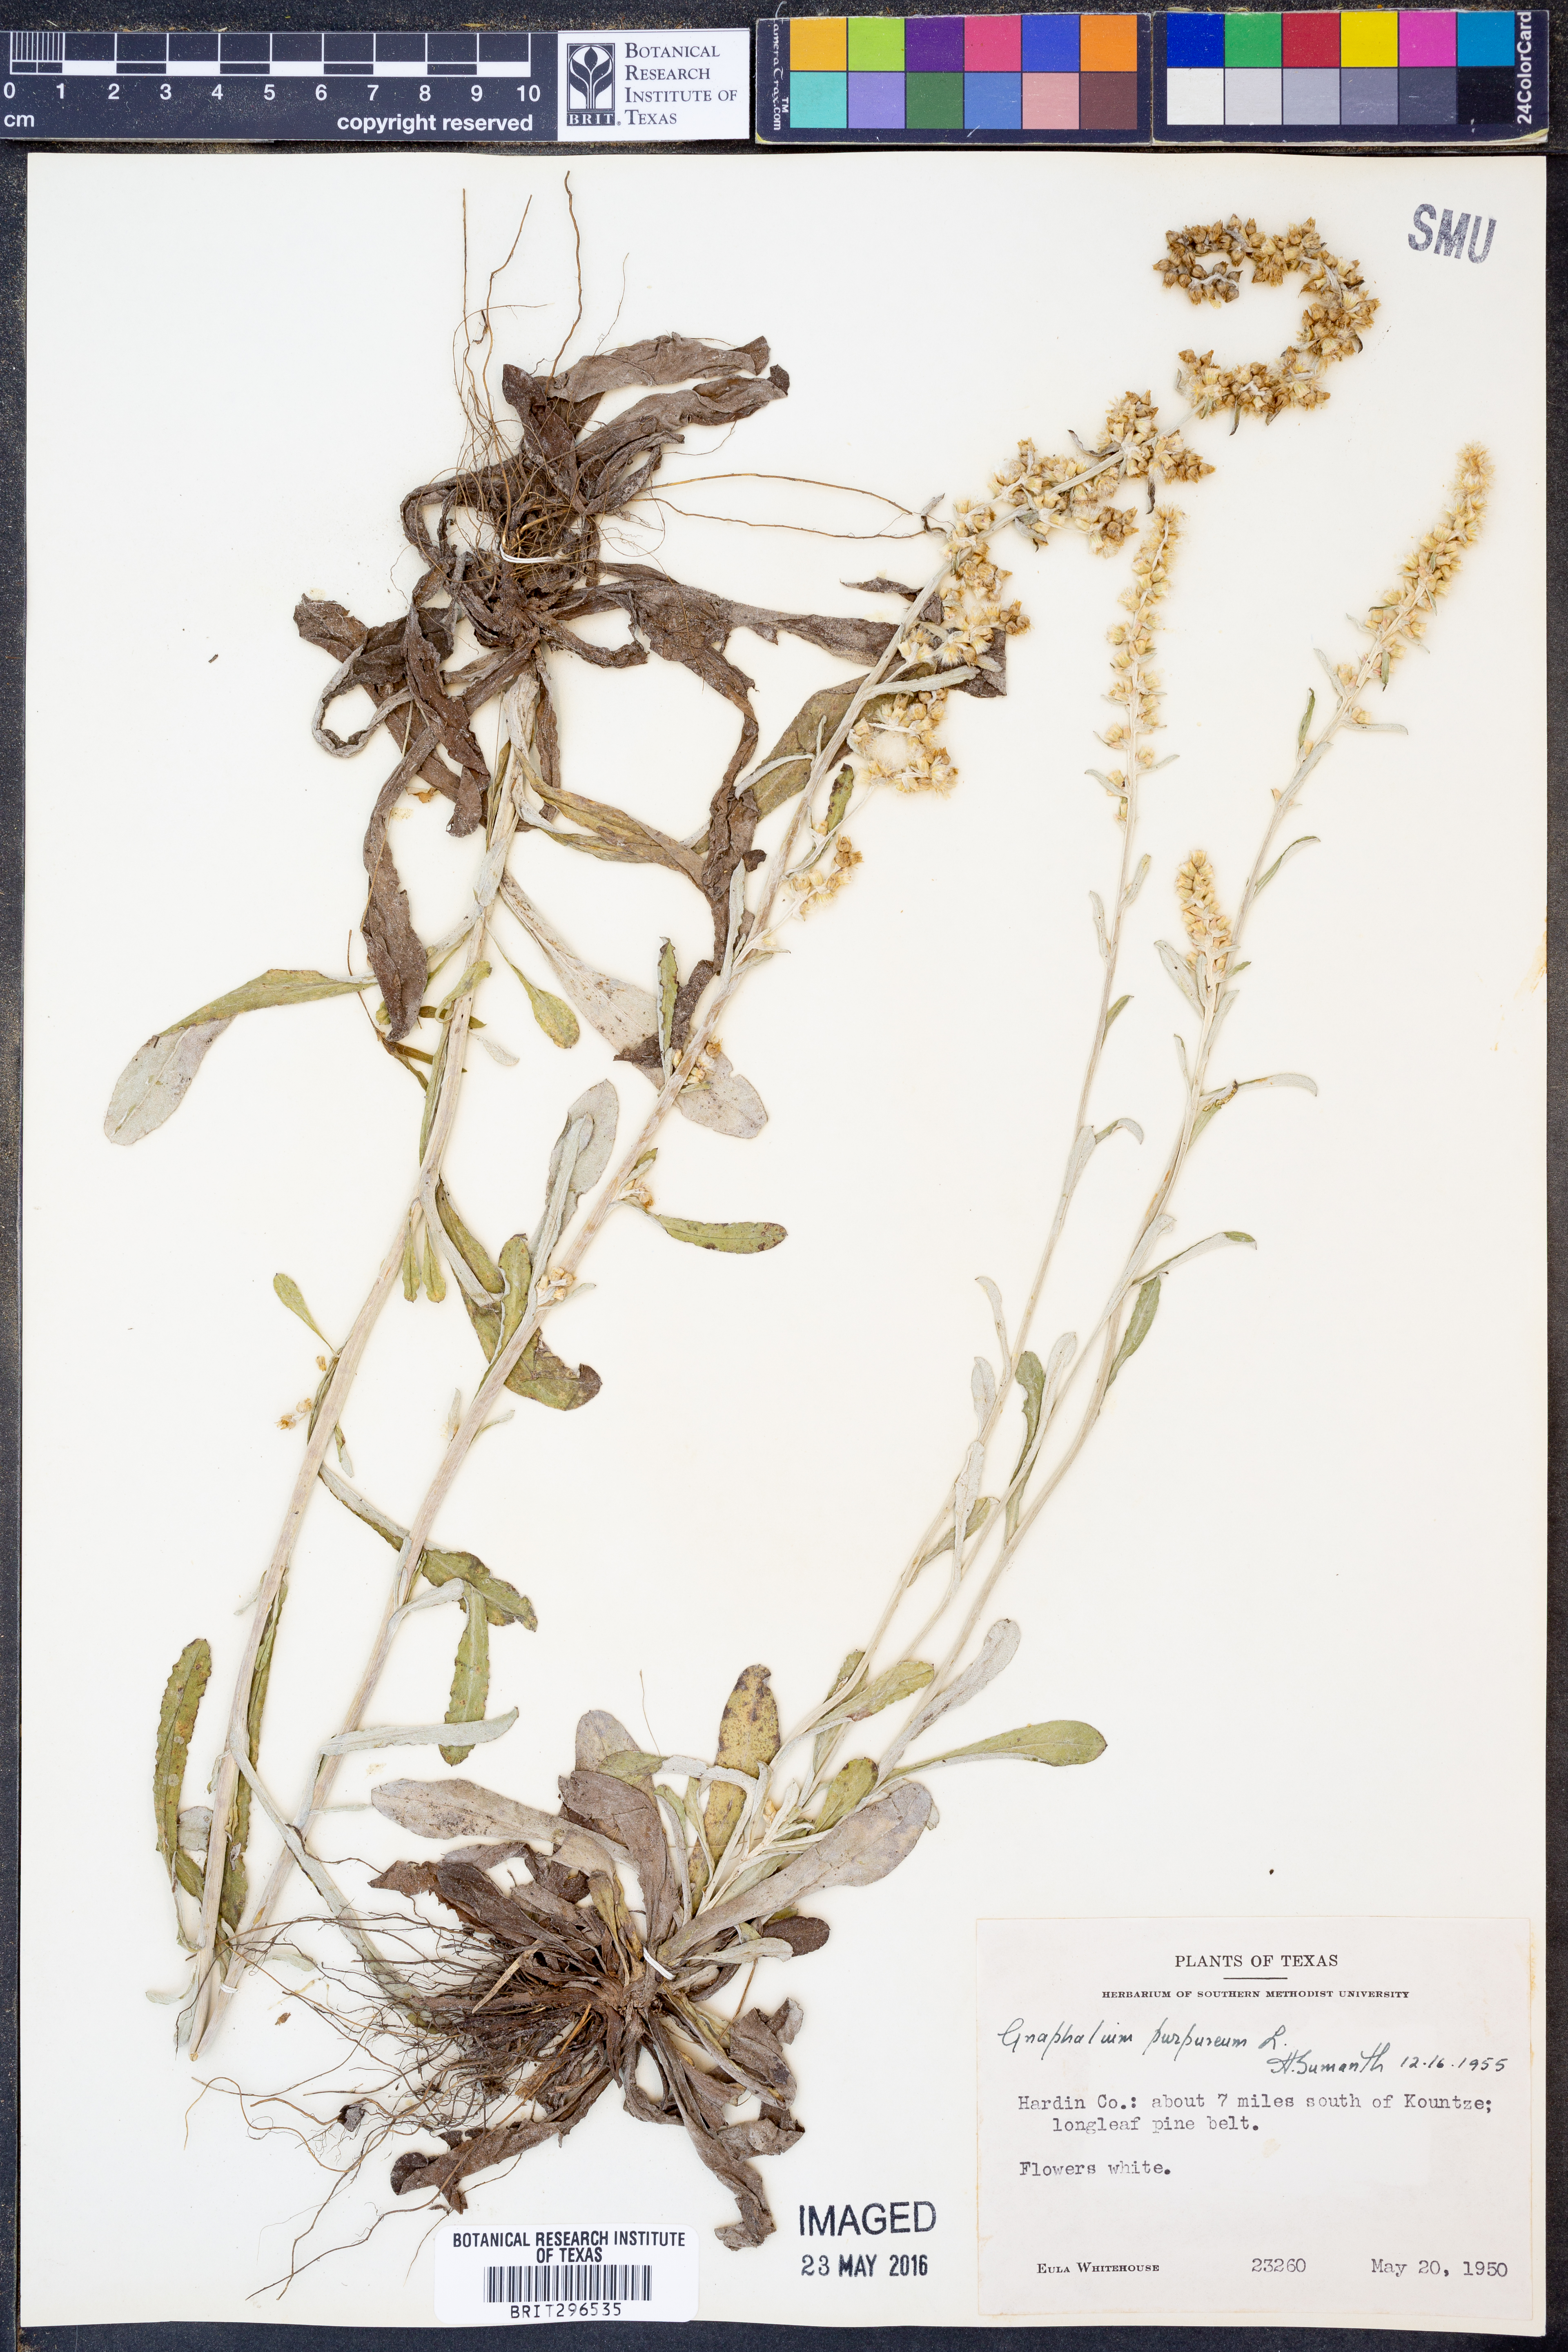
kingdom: Plantae
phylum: Tracheophyta
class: Magnoliopsida
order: Asterales
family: Asteraceae
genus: Gamochaeta
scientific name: Gamochaeta purpurea
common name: Purple cudweed
